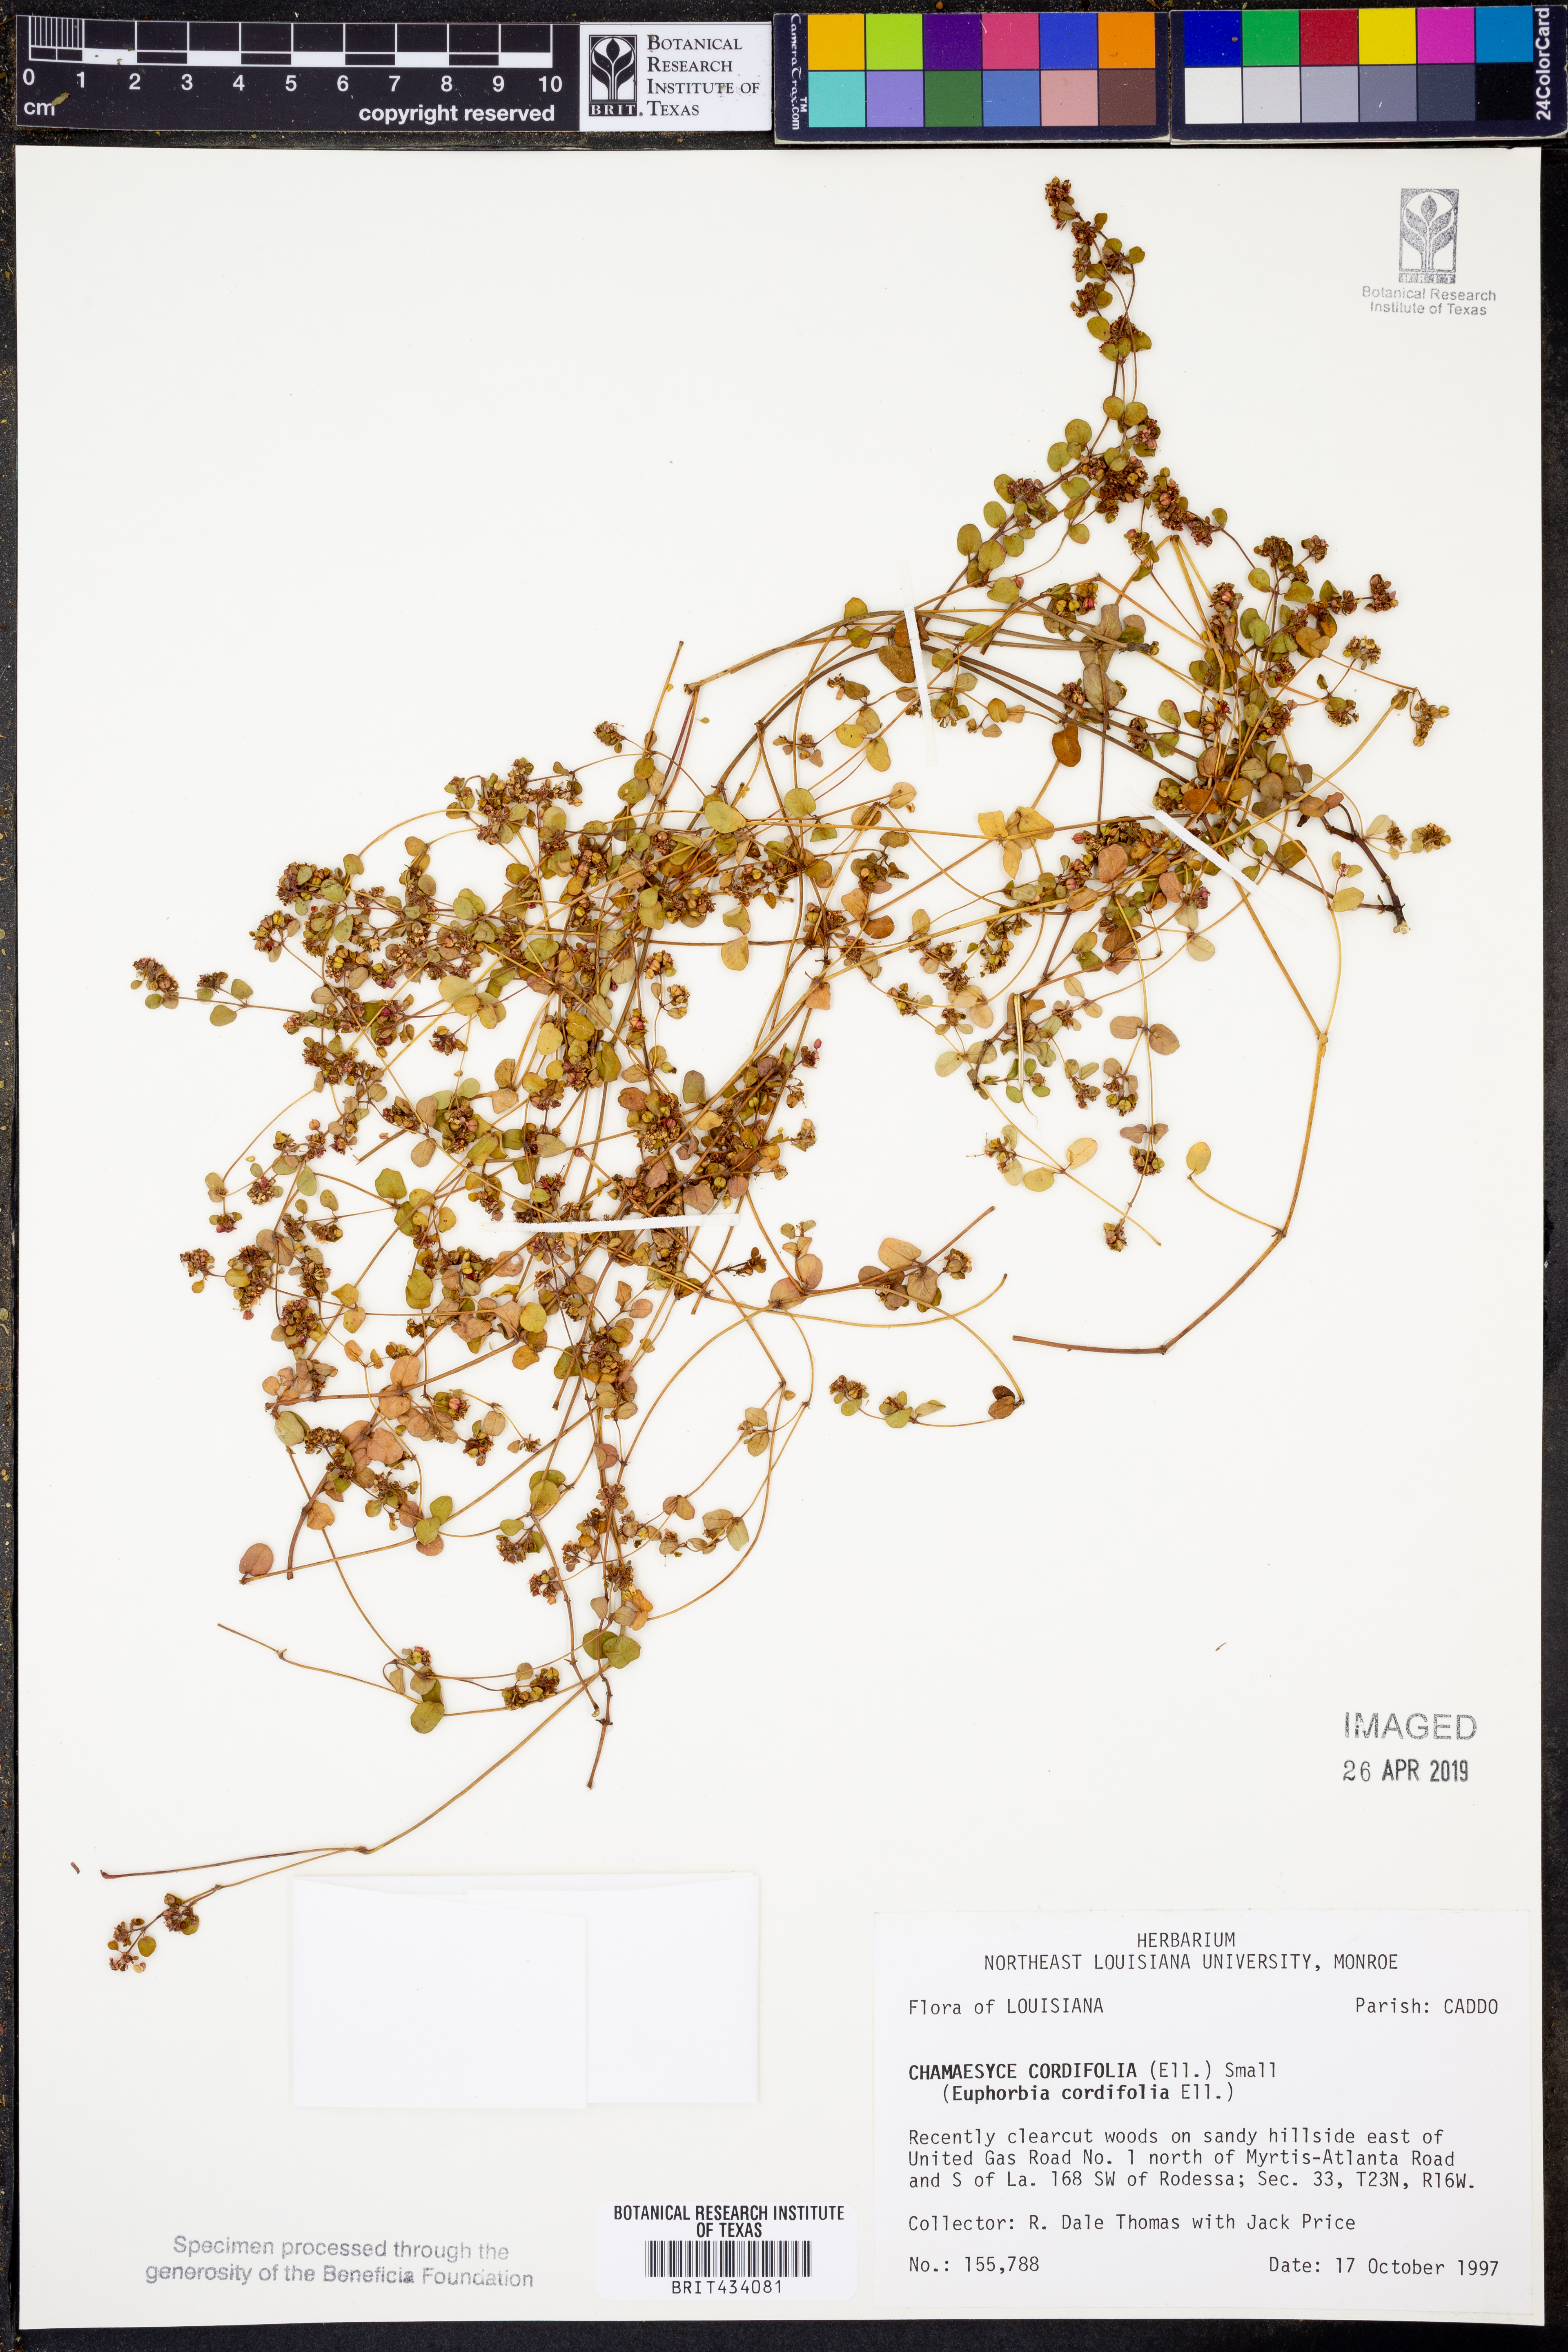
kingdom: Plantae
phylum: Tracheophyta
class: Magnoliopsida
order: Malpighiales
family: Euphorbiaceae
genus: Euphorbia
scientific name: Euphorbia cordifolia
